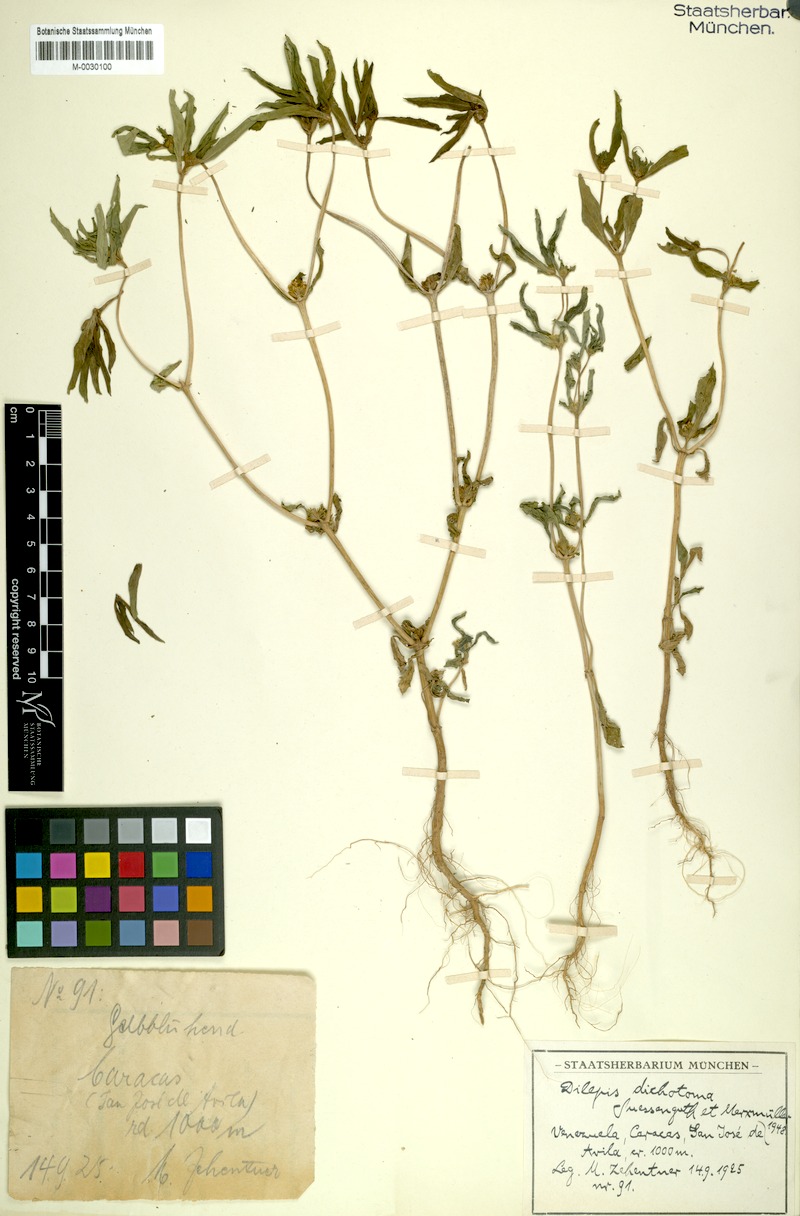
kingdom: Plantae
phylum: Tracheophyta
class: Magnoliopsida
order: Asterales
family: Asteraceae
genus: Flaveria
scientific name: Flaveria trinervia
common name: Clustered yellowtops
